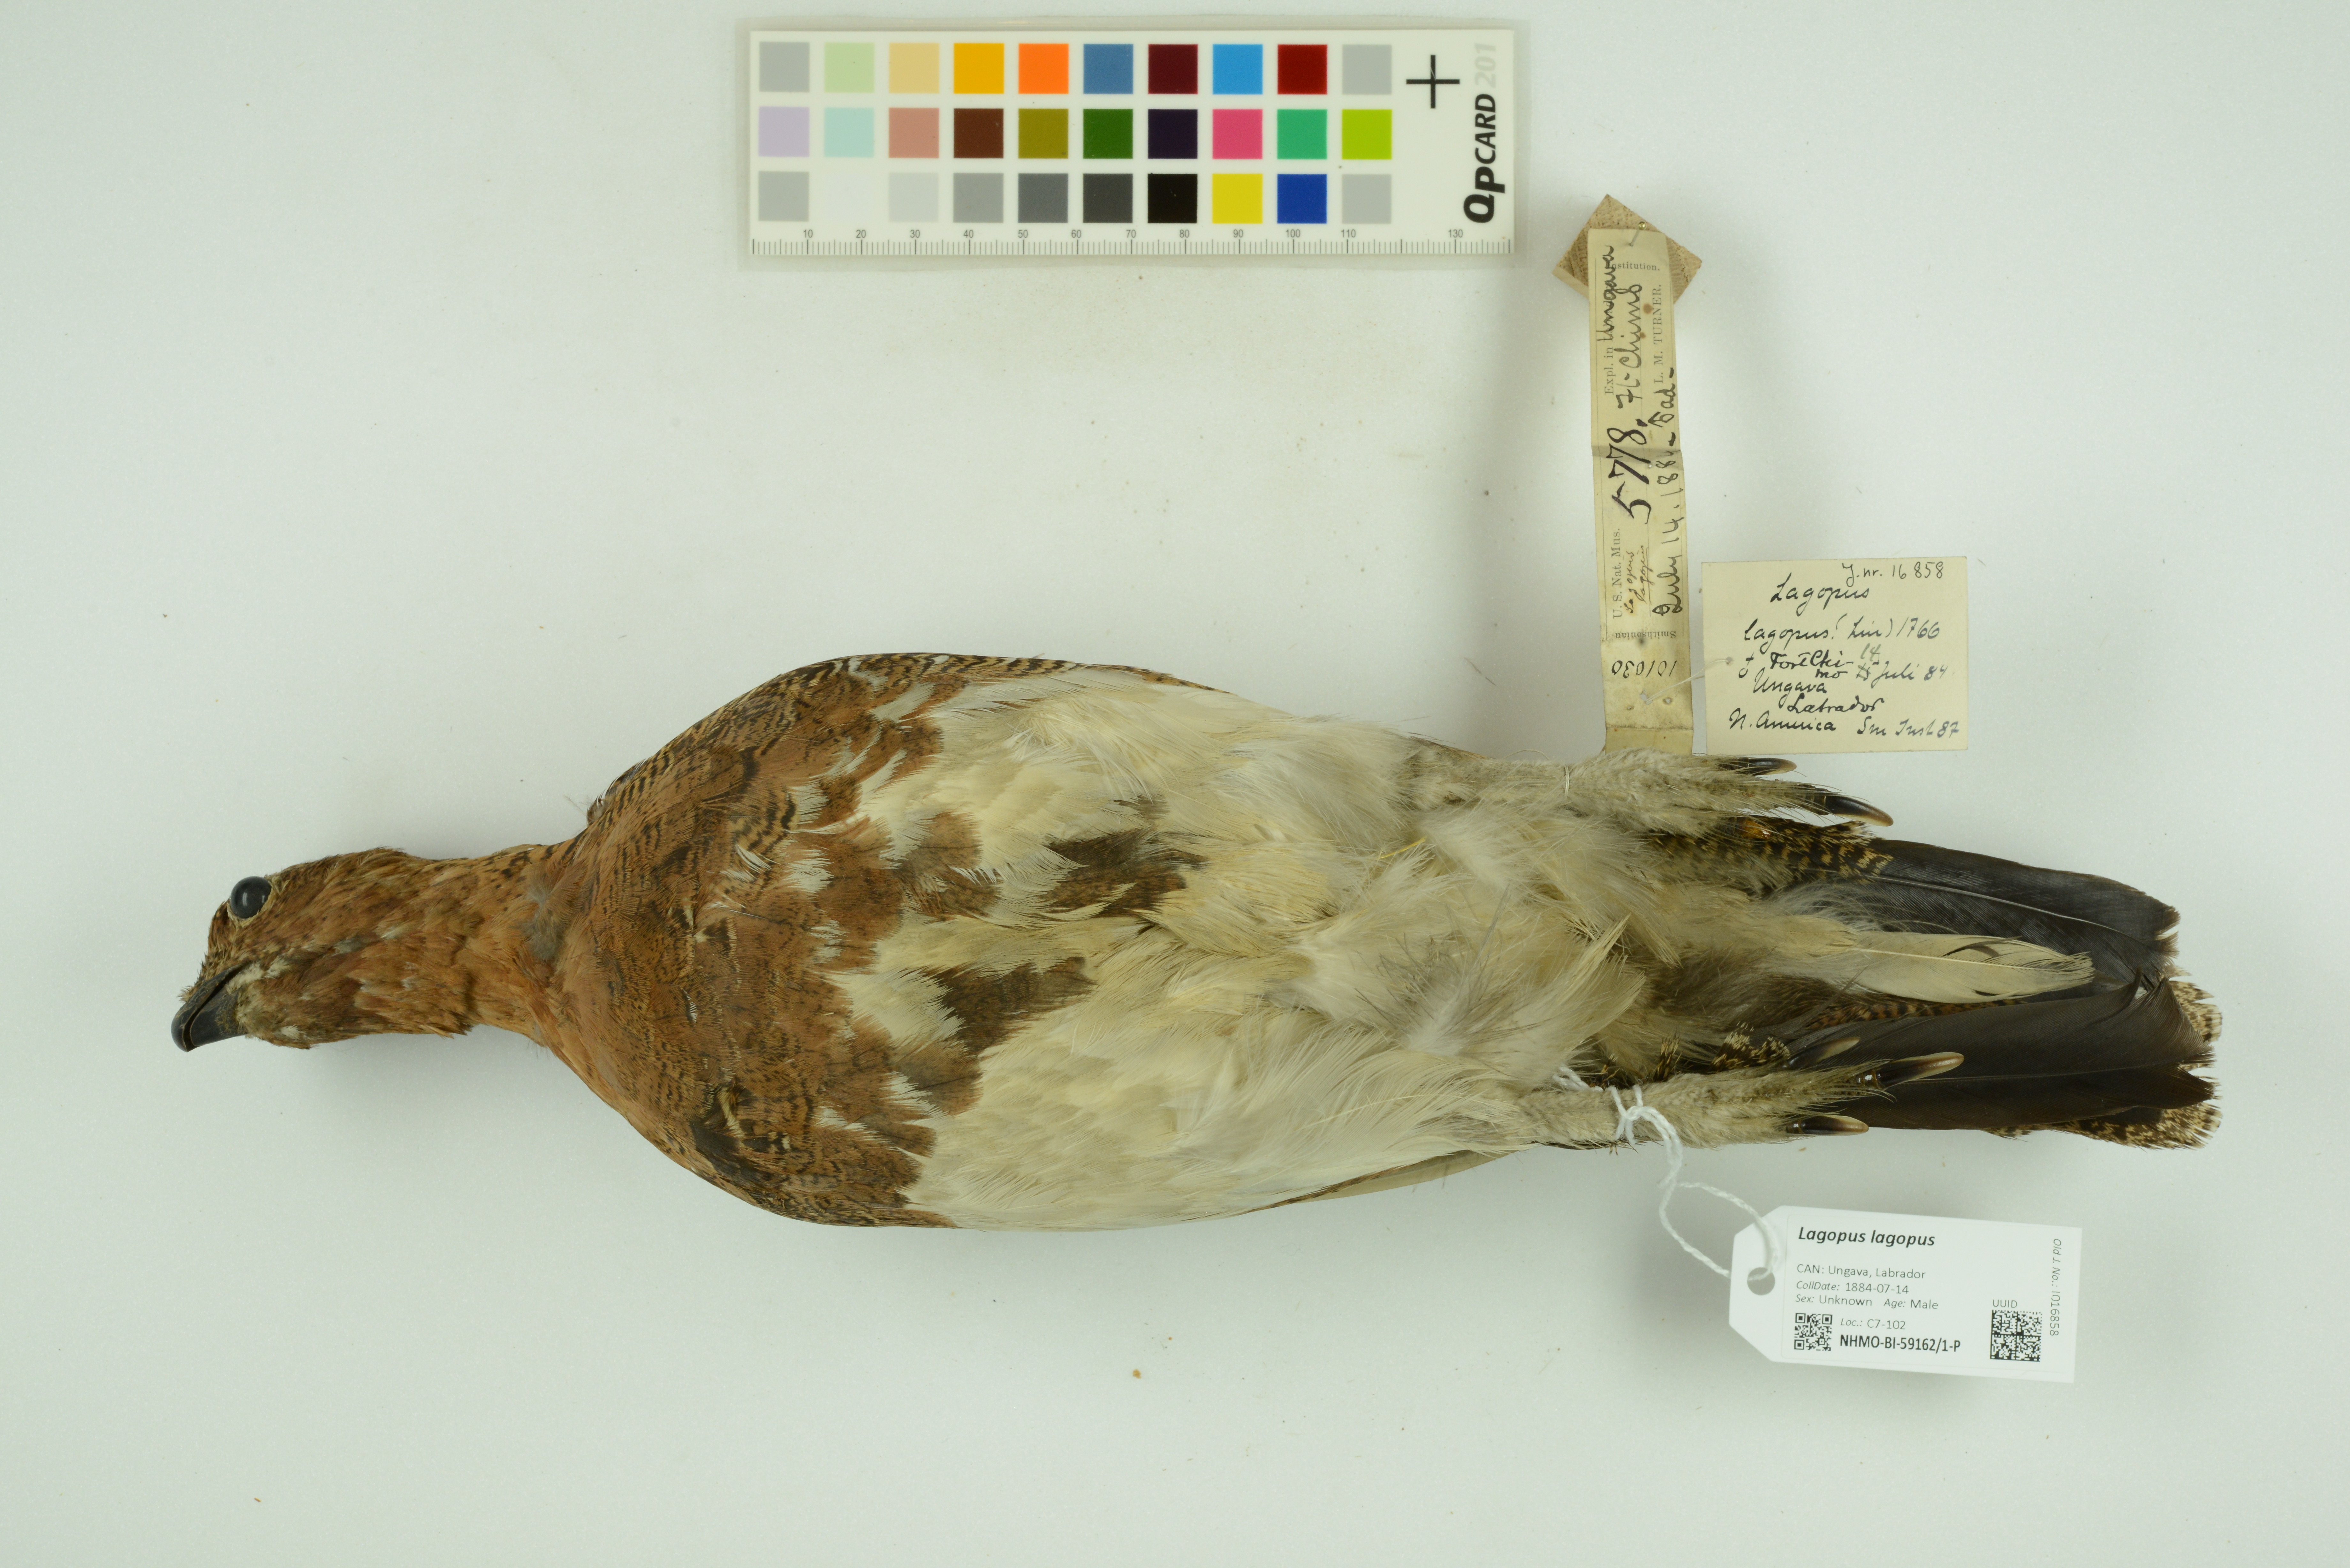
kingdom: Animalia
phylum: Chordata
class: Aves
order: Galliformes
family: Phasianidae
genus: Lagopus
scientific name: Lagopus lagopus
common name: Willow ptarmigan
